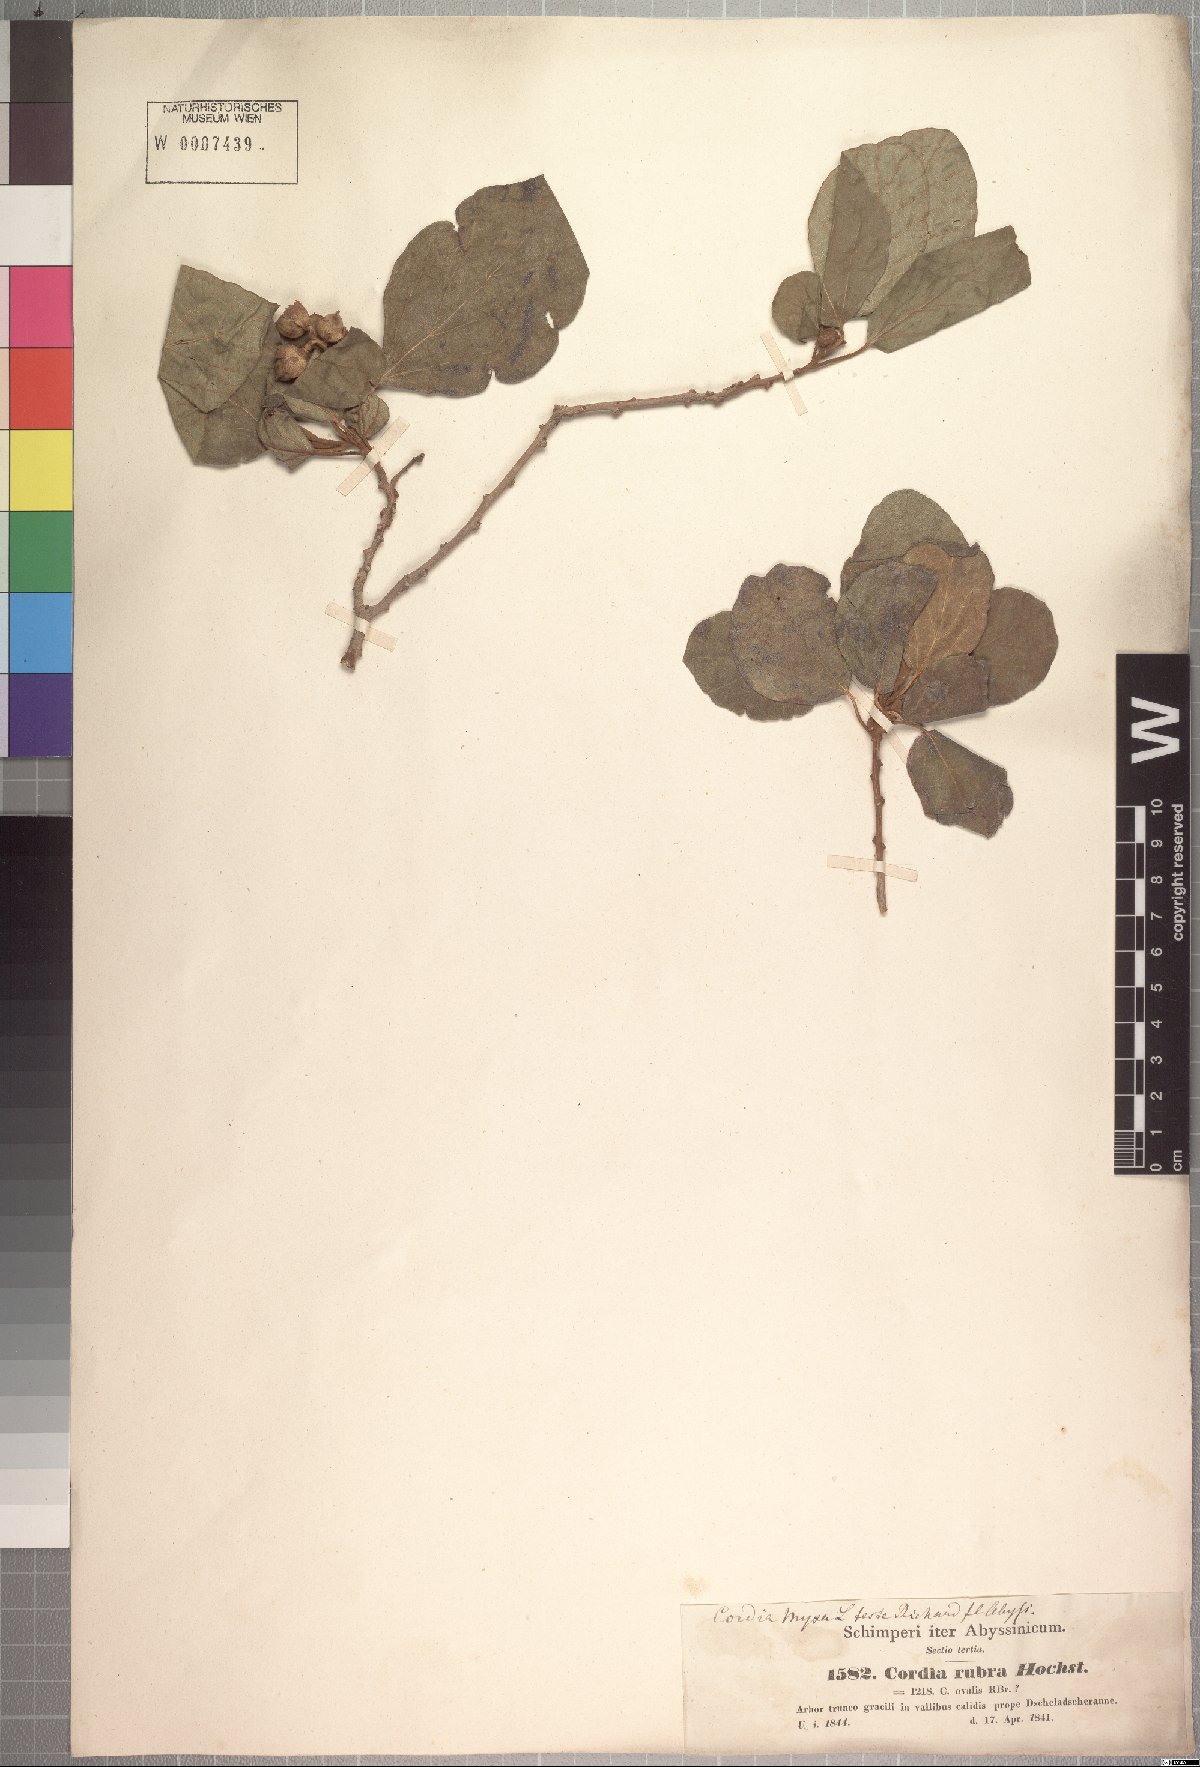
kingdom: Plantae
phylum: Tracheophyta
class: Magnoliopsida
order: Boraginales
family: Cordiaceae
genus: Cordia
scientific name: Cordia monoica
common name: Snot berry
